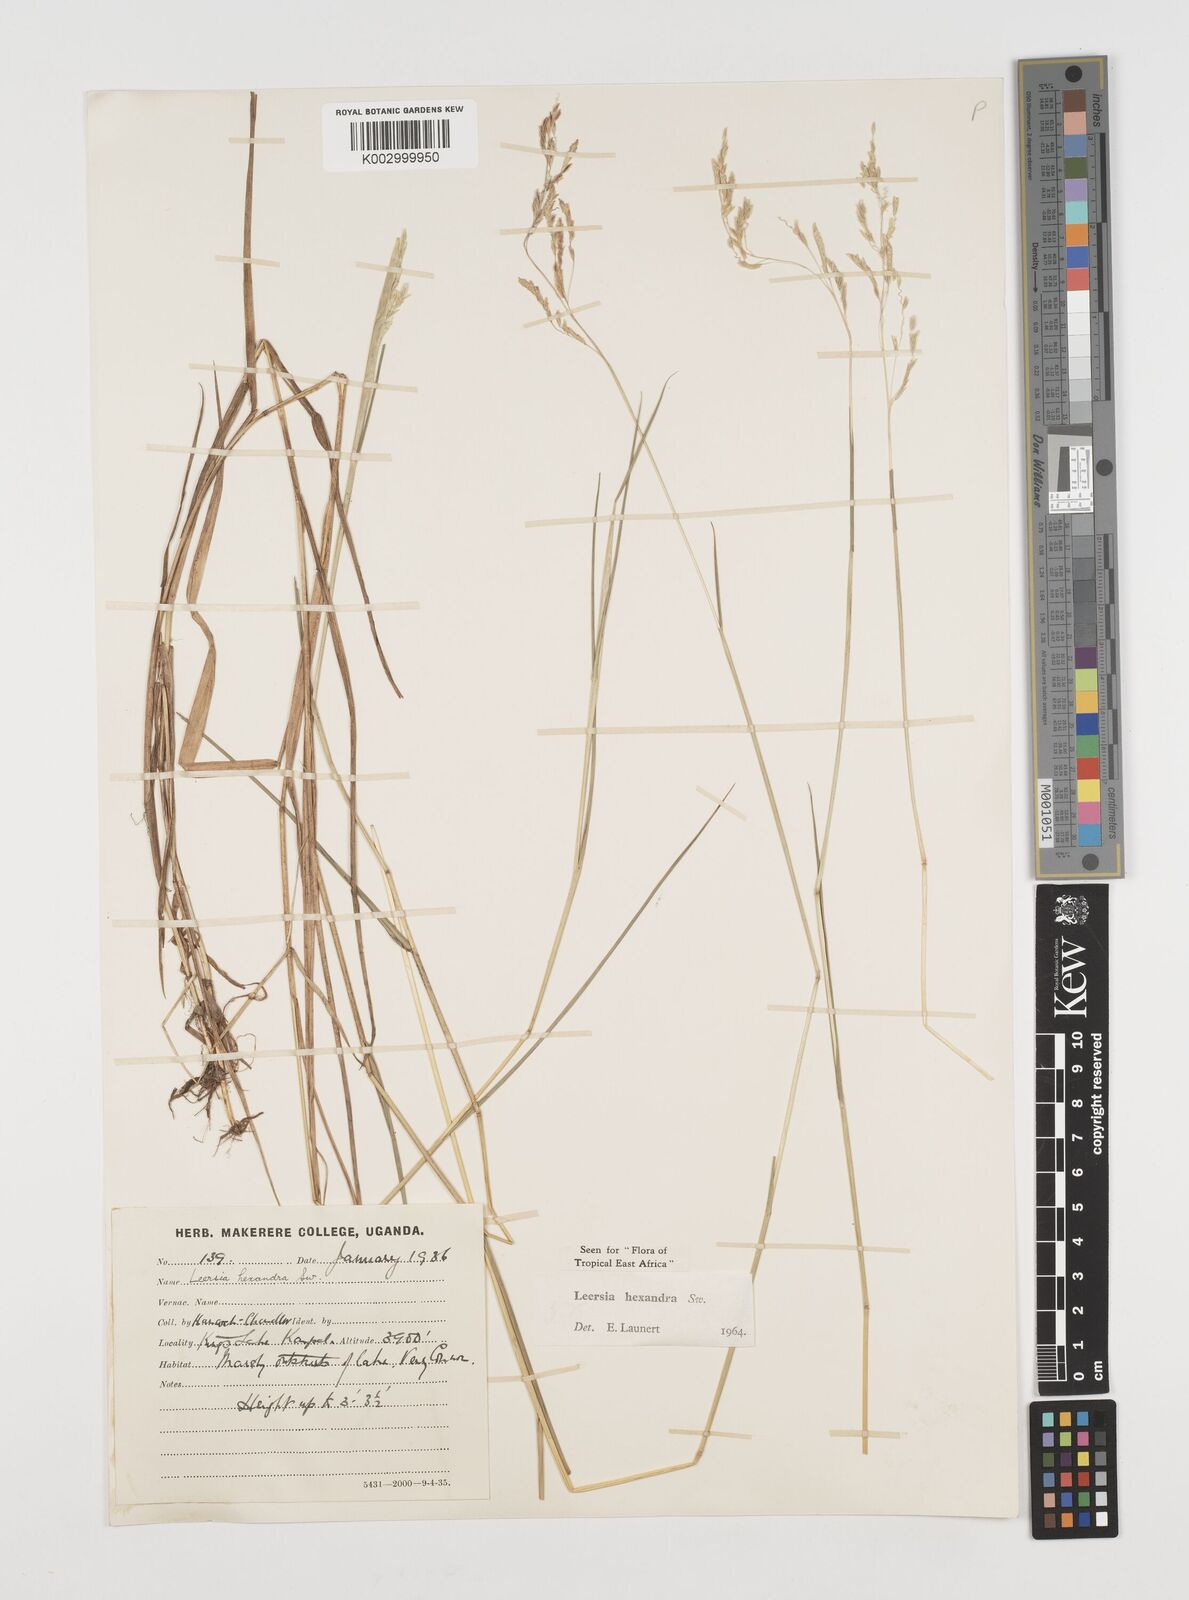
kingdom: Plantae
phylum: Tracheophyta
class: Liliopsida
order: Poales
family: Poaceae
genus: Leersia
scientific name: Leersia hexandra
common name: Southern cut grass
